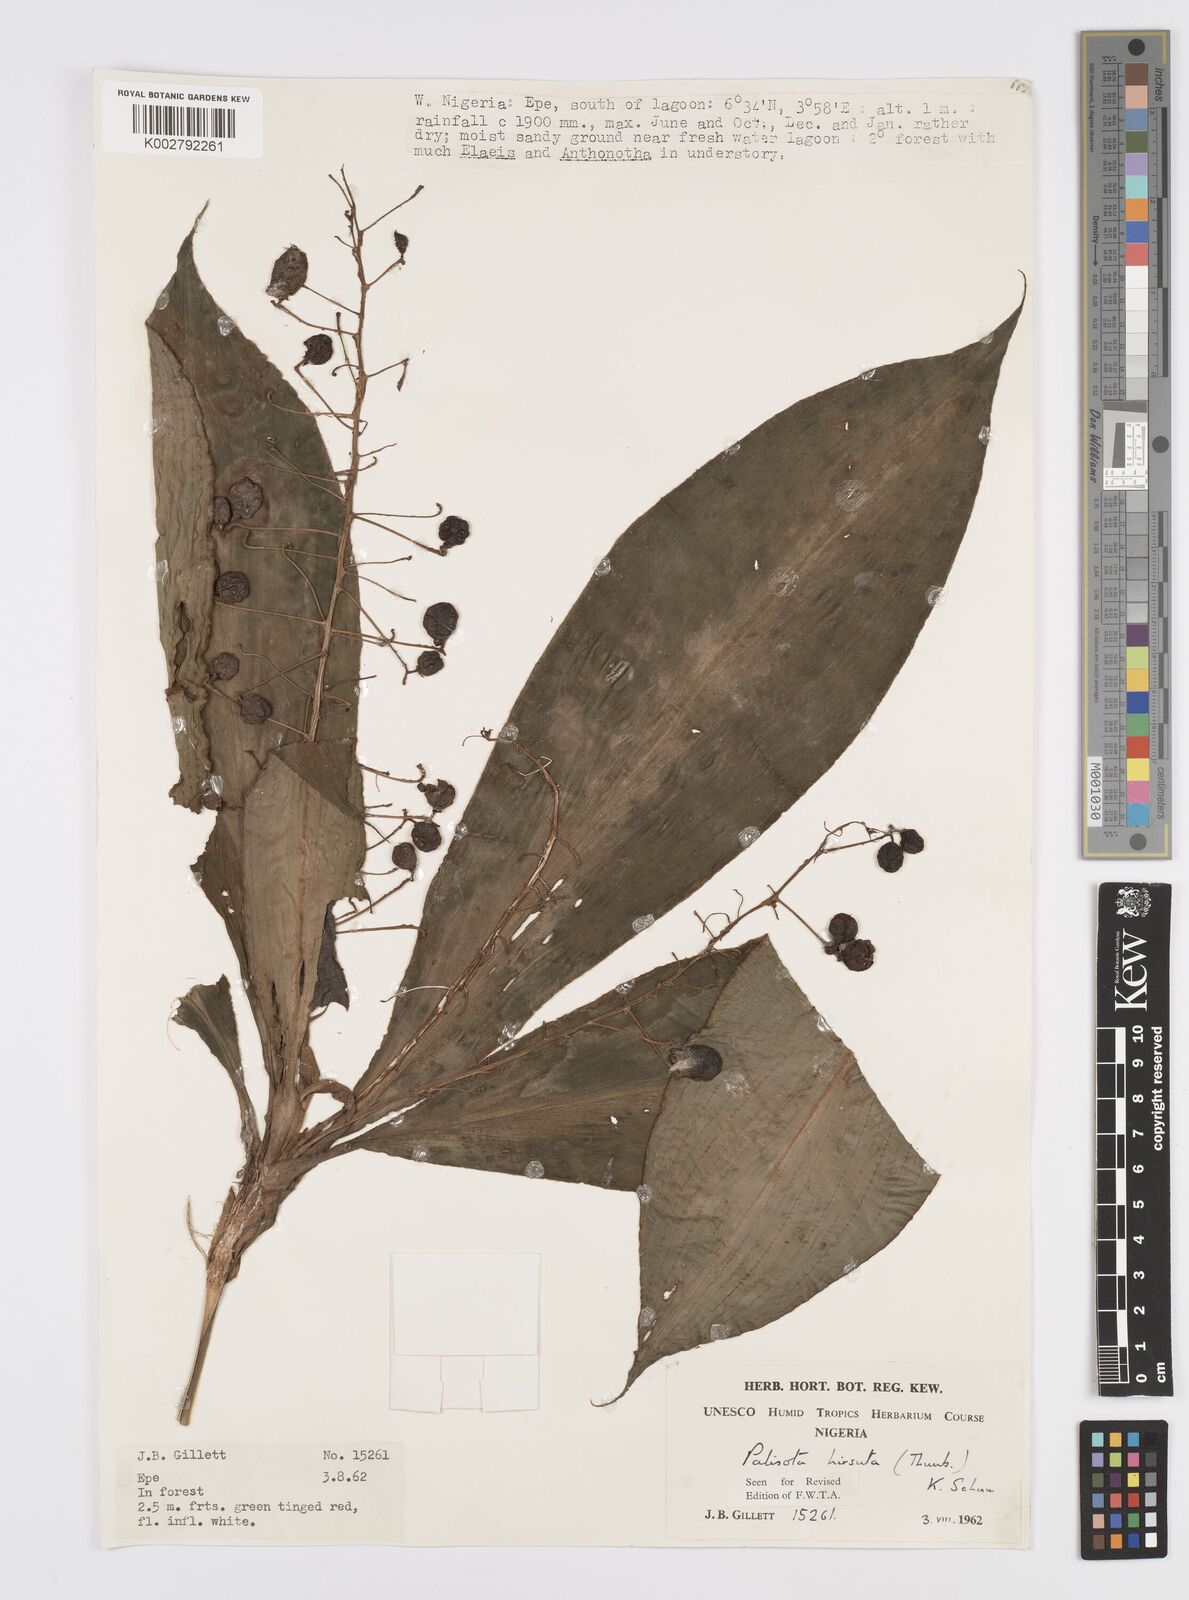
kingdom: Plantae
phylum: Tracheophyta
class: Liliopsida
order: Commelinales
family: Commelinaceae
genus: Palisota
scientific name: Palisota hirsuta
